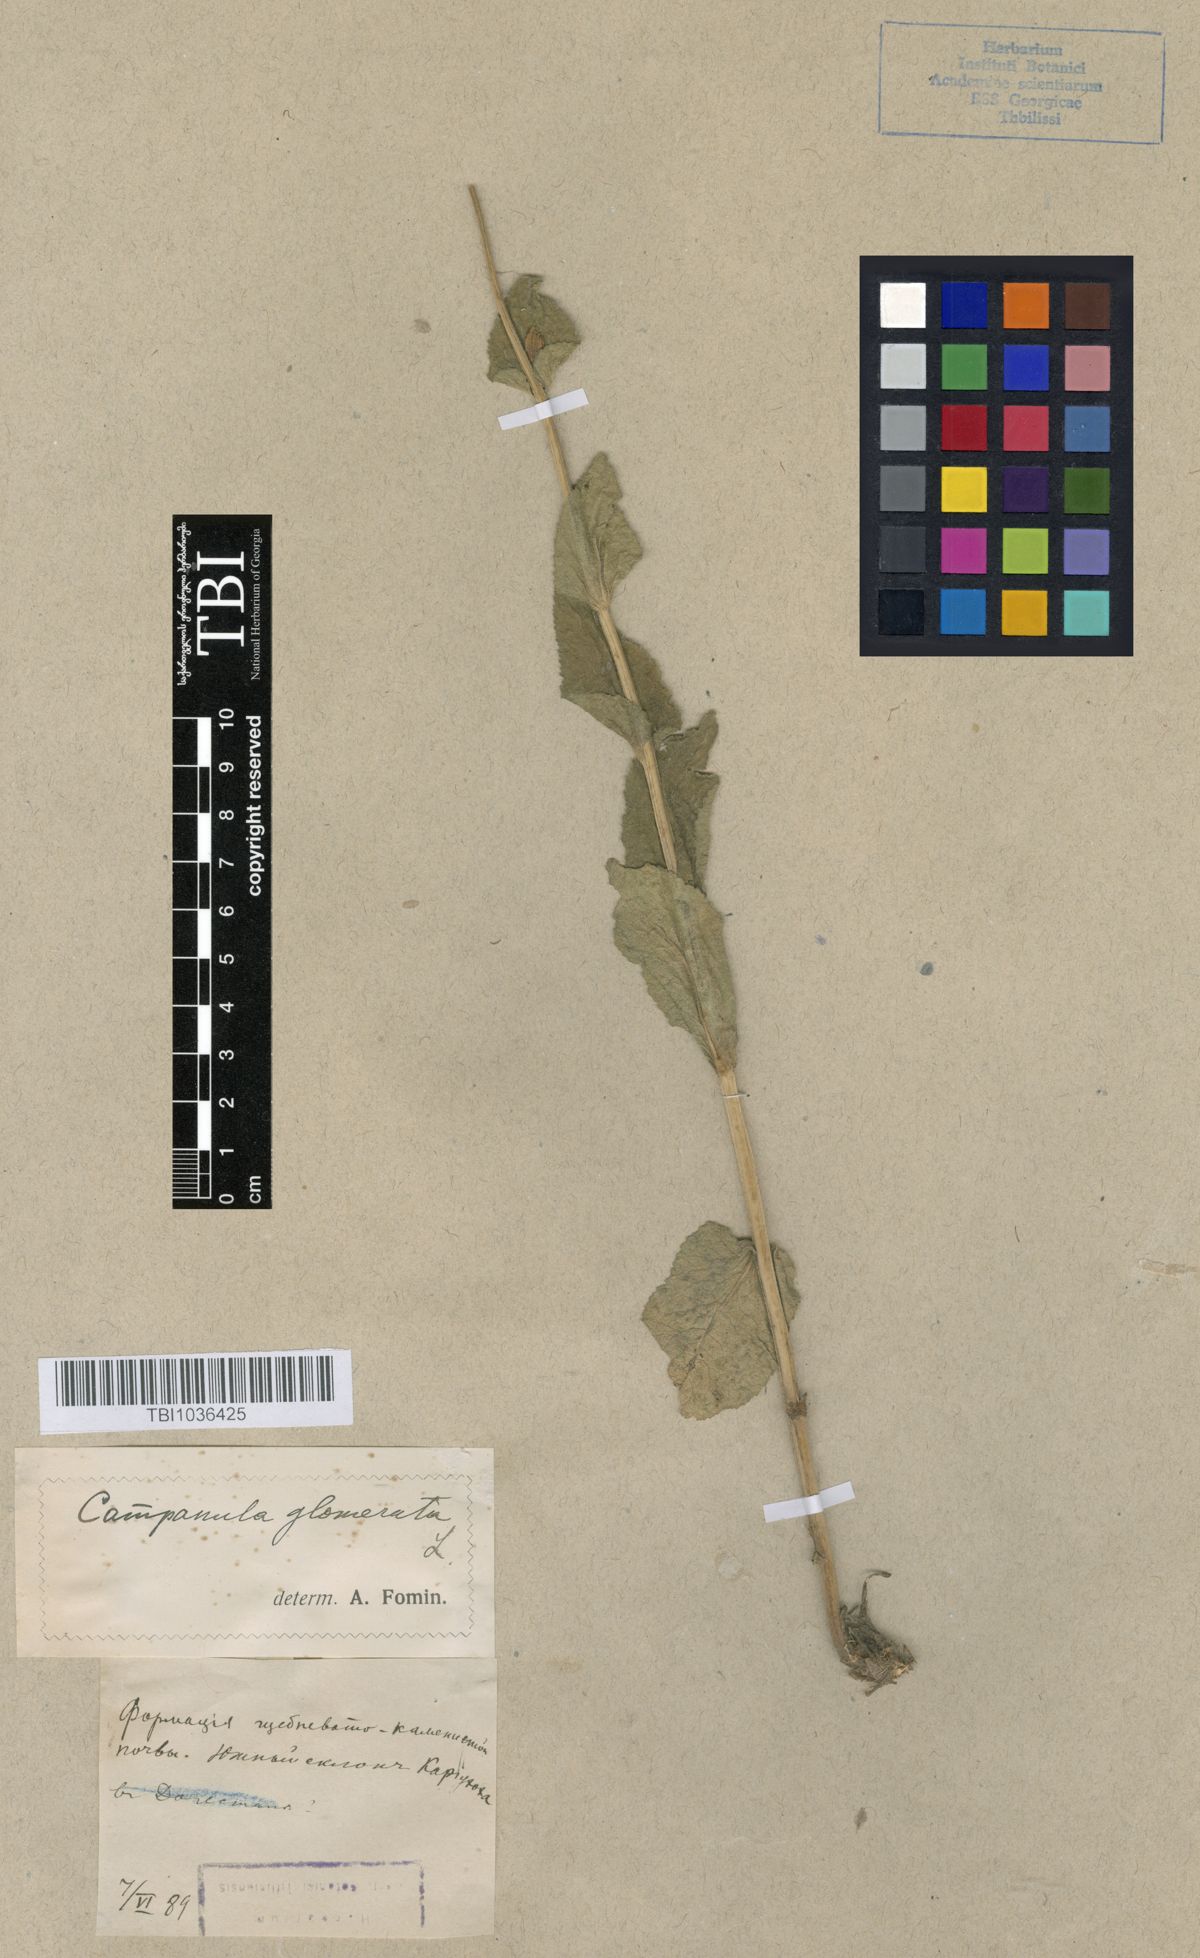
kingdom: Plantae
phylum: Tracheophyta
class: Magnoliopsida
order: Asterales
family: Campanulaceae
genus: Campanula
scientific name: Campanula glomerata
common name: Clustered bellflower
